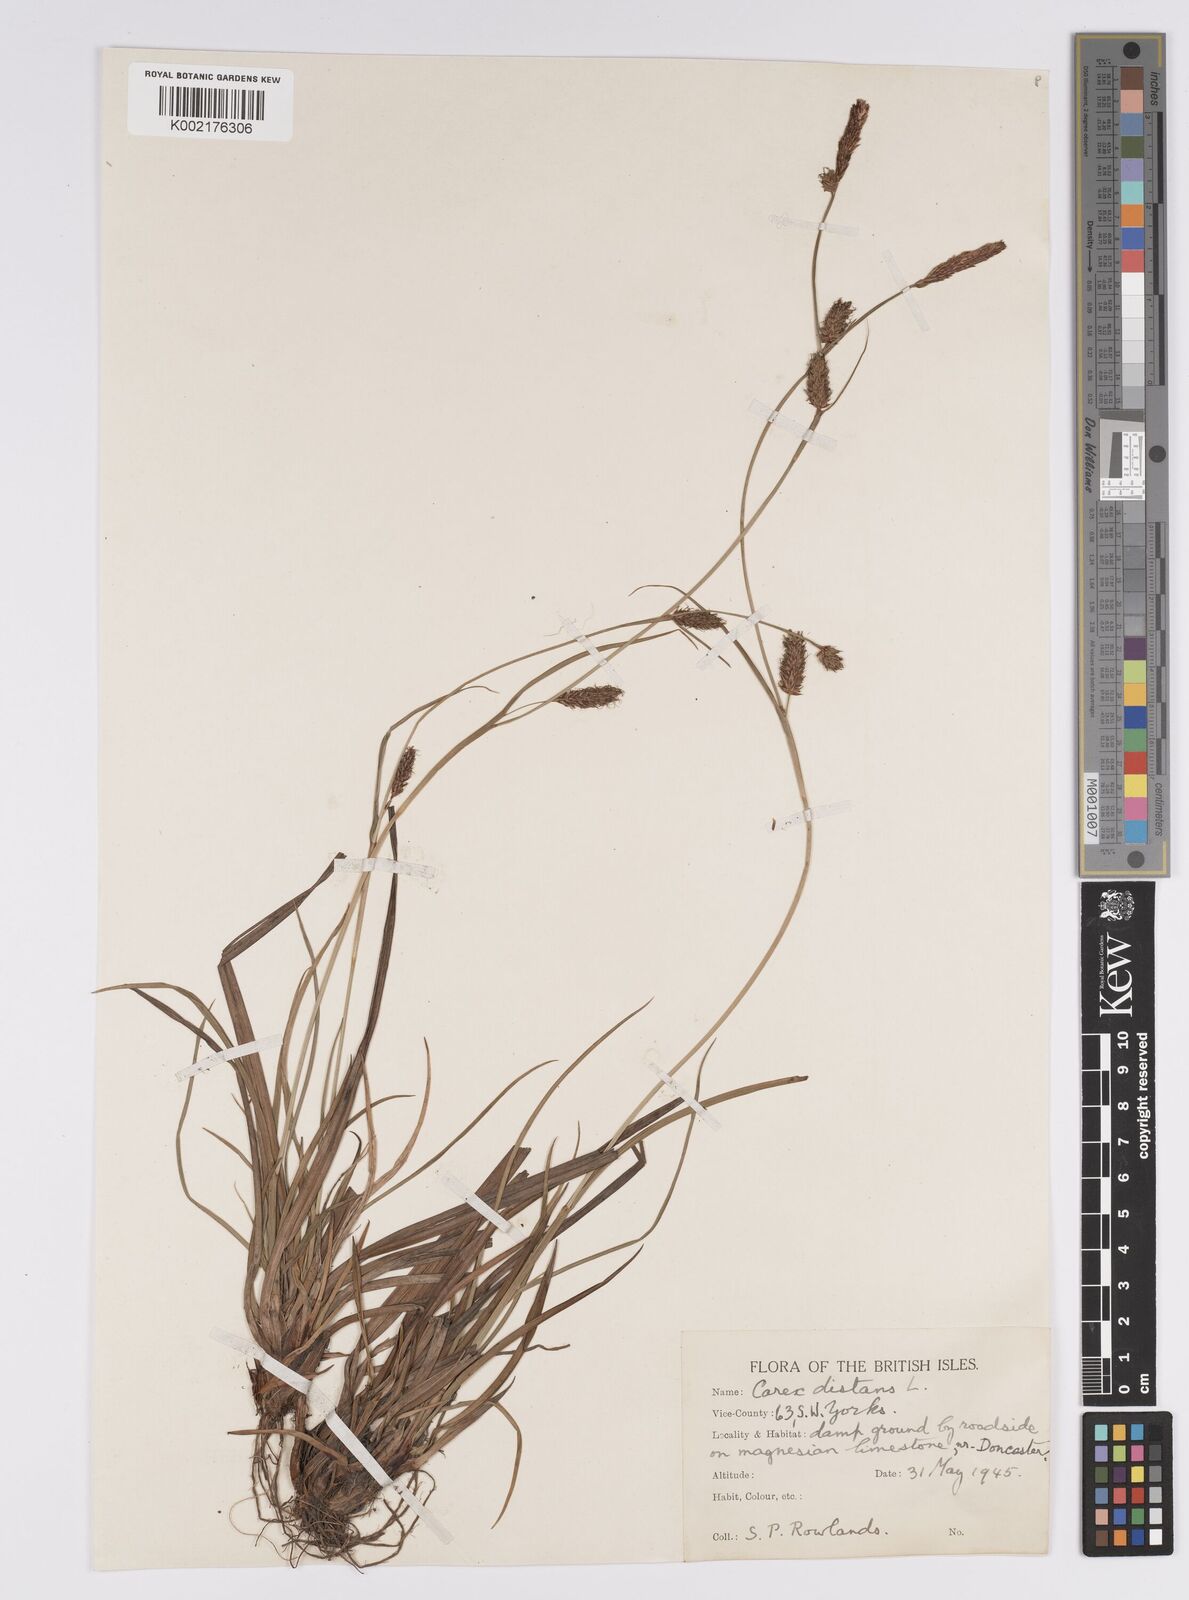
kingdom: Plantae
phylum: Tracheophyta
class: Liliopsida
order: Poales
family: Cyperaceae
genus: Carex
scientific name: Carex distans
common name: Distant sedge
